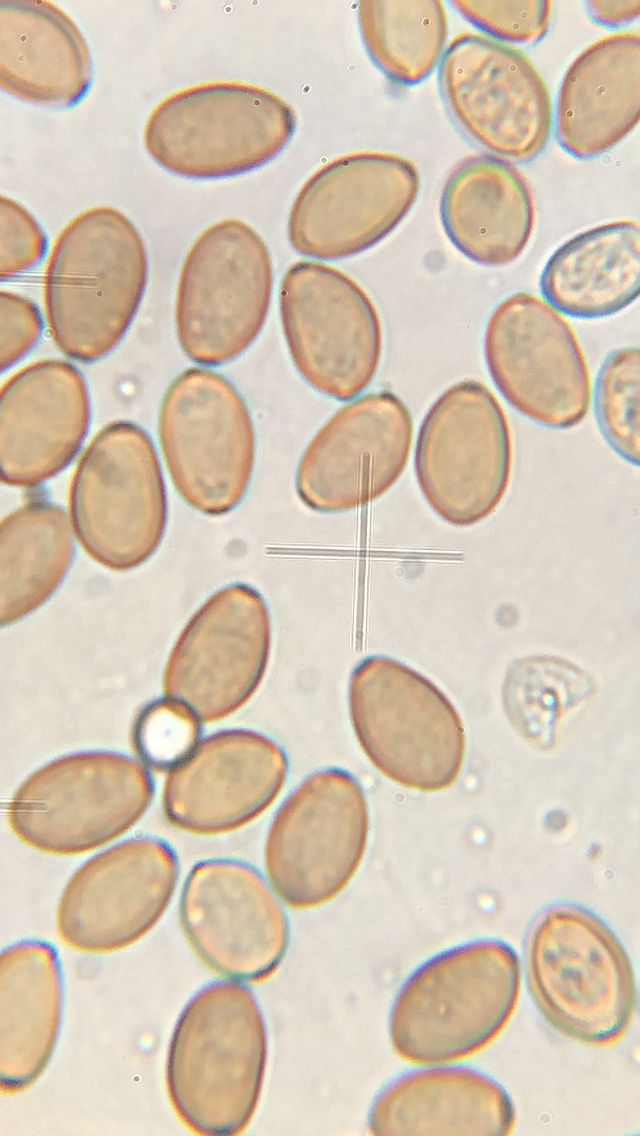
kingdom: Fungi
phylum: Basidiomycota
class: Agaricomycetes
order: Agaricales
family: Strophariaceae
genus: Agrocybe
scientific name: Agrocybe pediades
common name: almindelig agerhat
